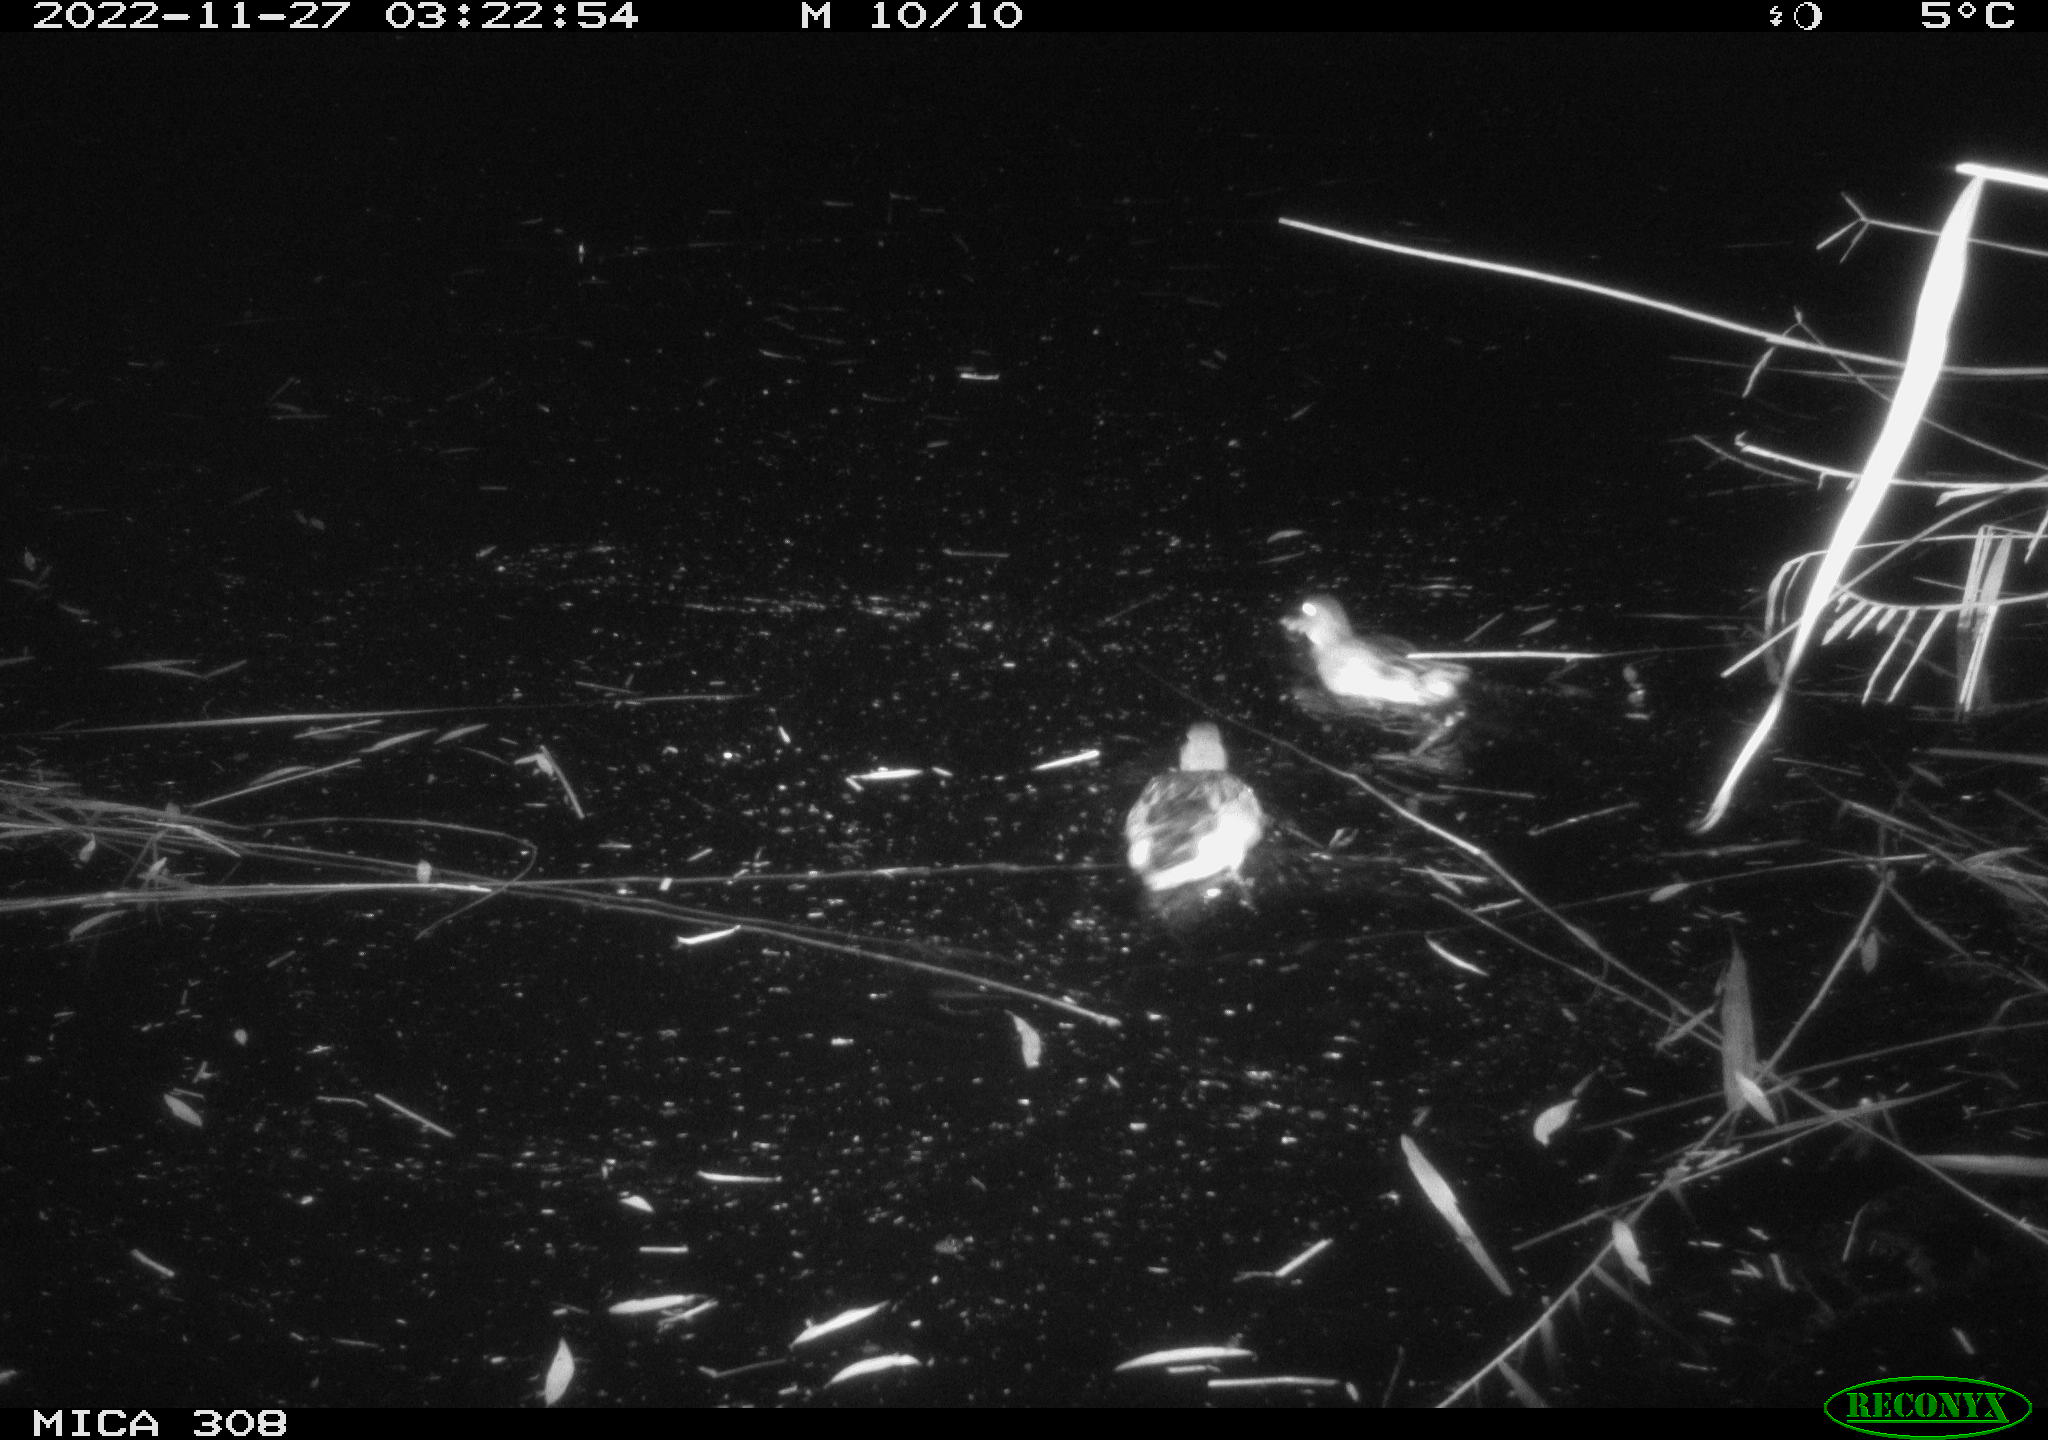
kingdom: Animalia
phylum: Chordata
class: Aves
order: Anseriformes
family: Anatidae
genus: Anas
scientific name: Anas
